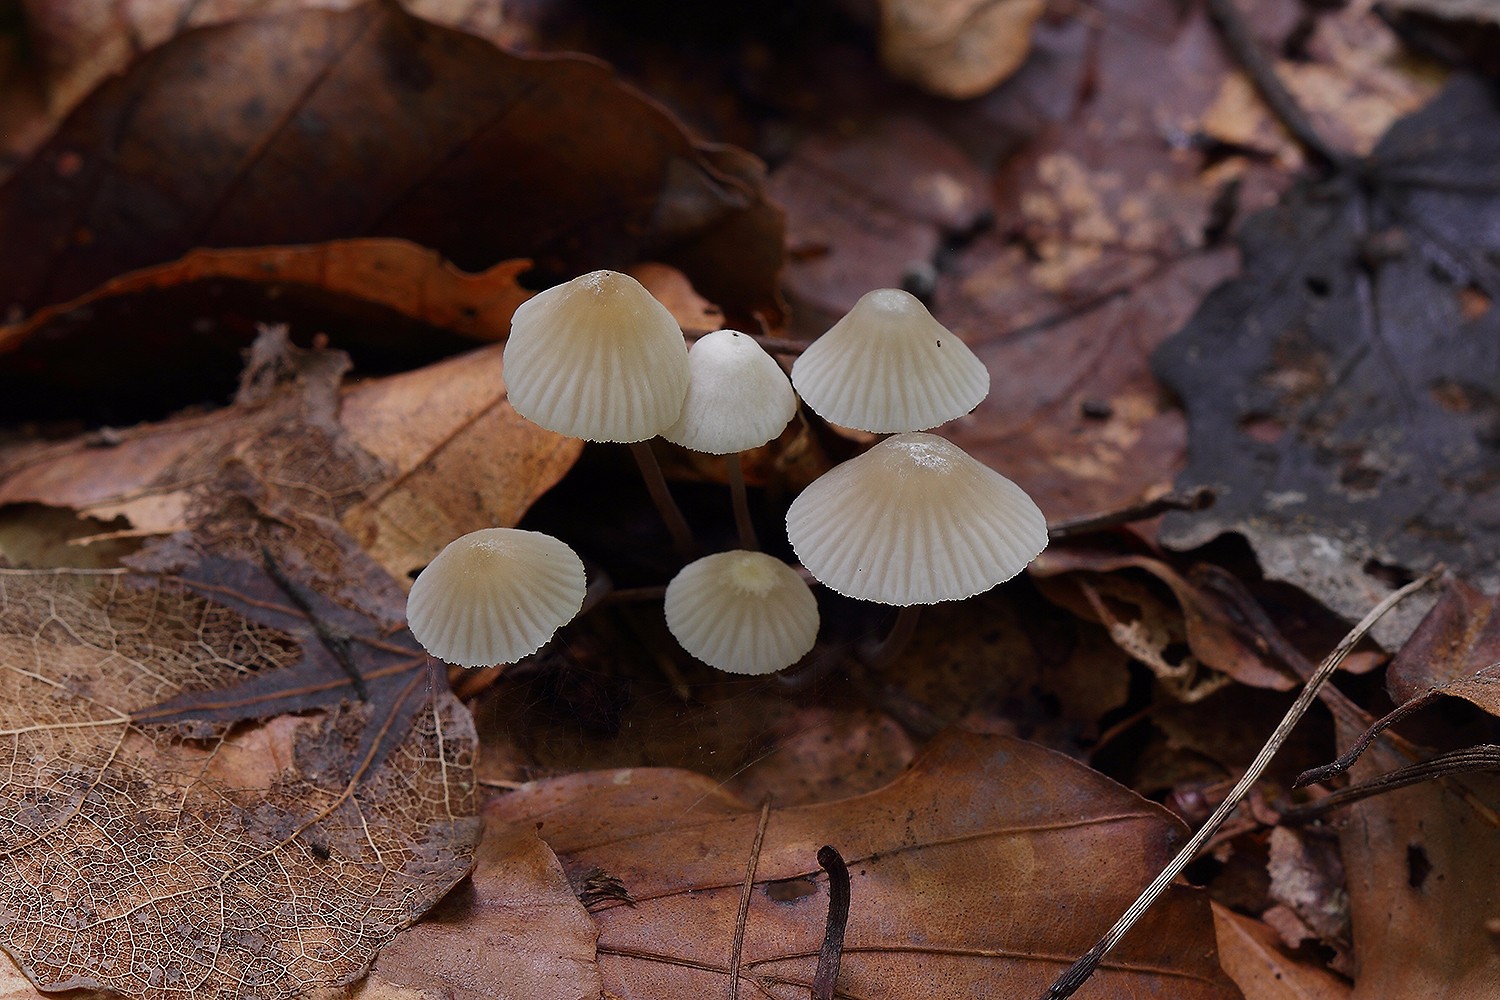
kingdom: Fungi
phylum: Basidiomycota
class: Agaricomycetes
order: Agaricales
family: Mycenaceae
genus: Mycena
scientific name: Mycena flavescens
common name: grågul huesvamp
